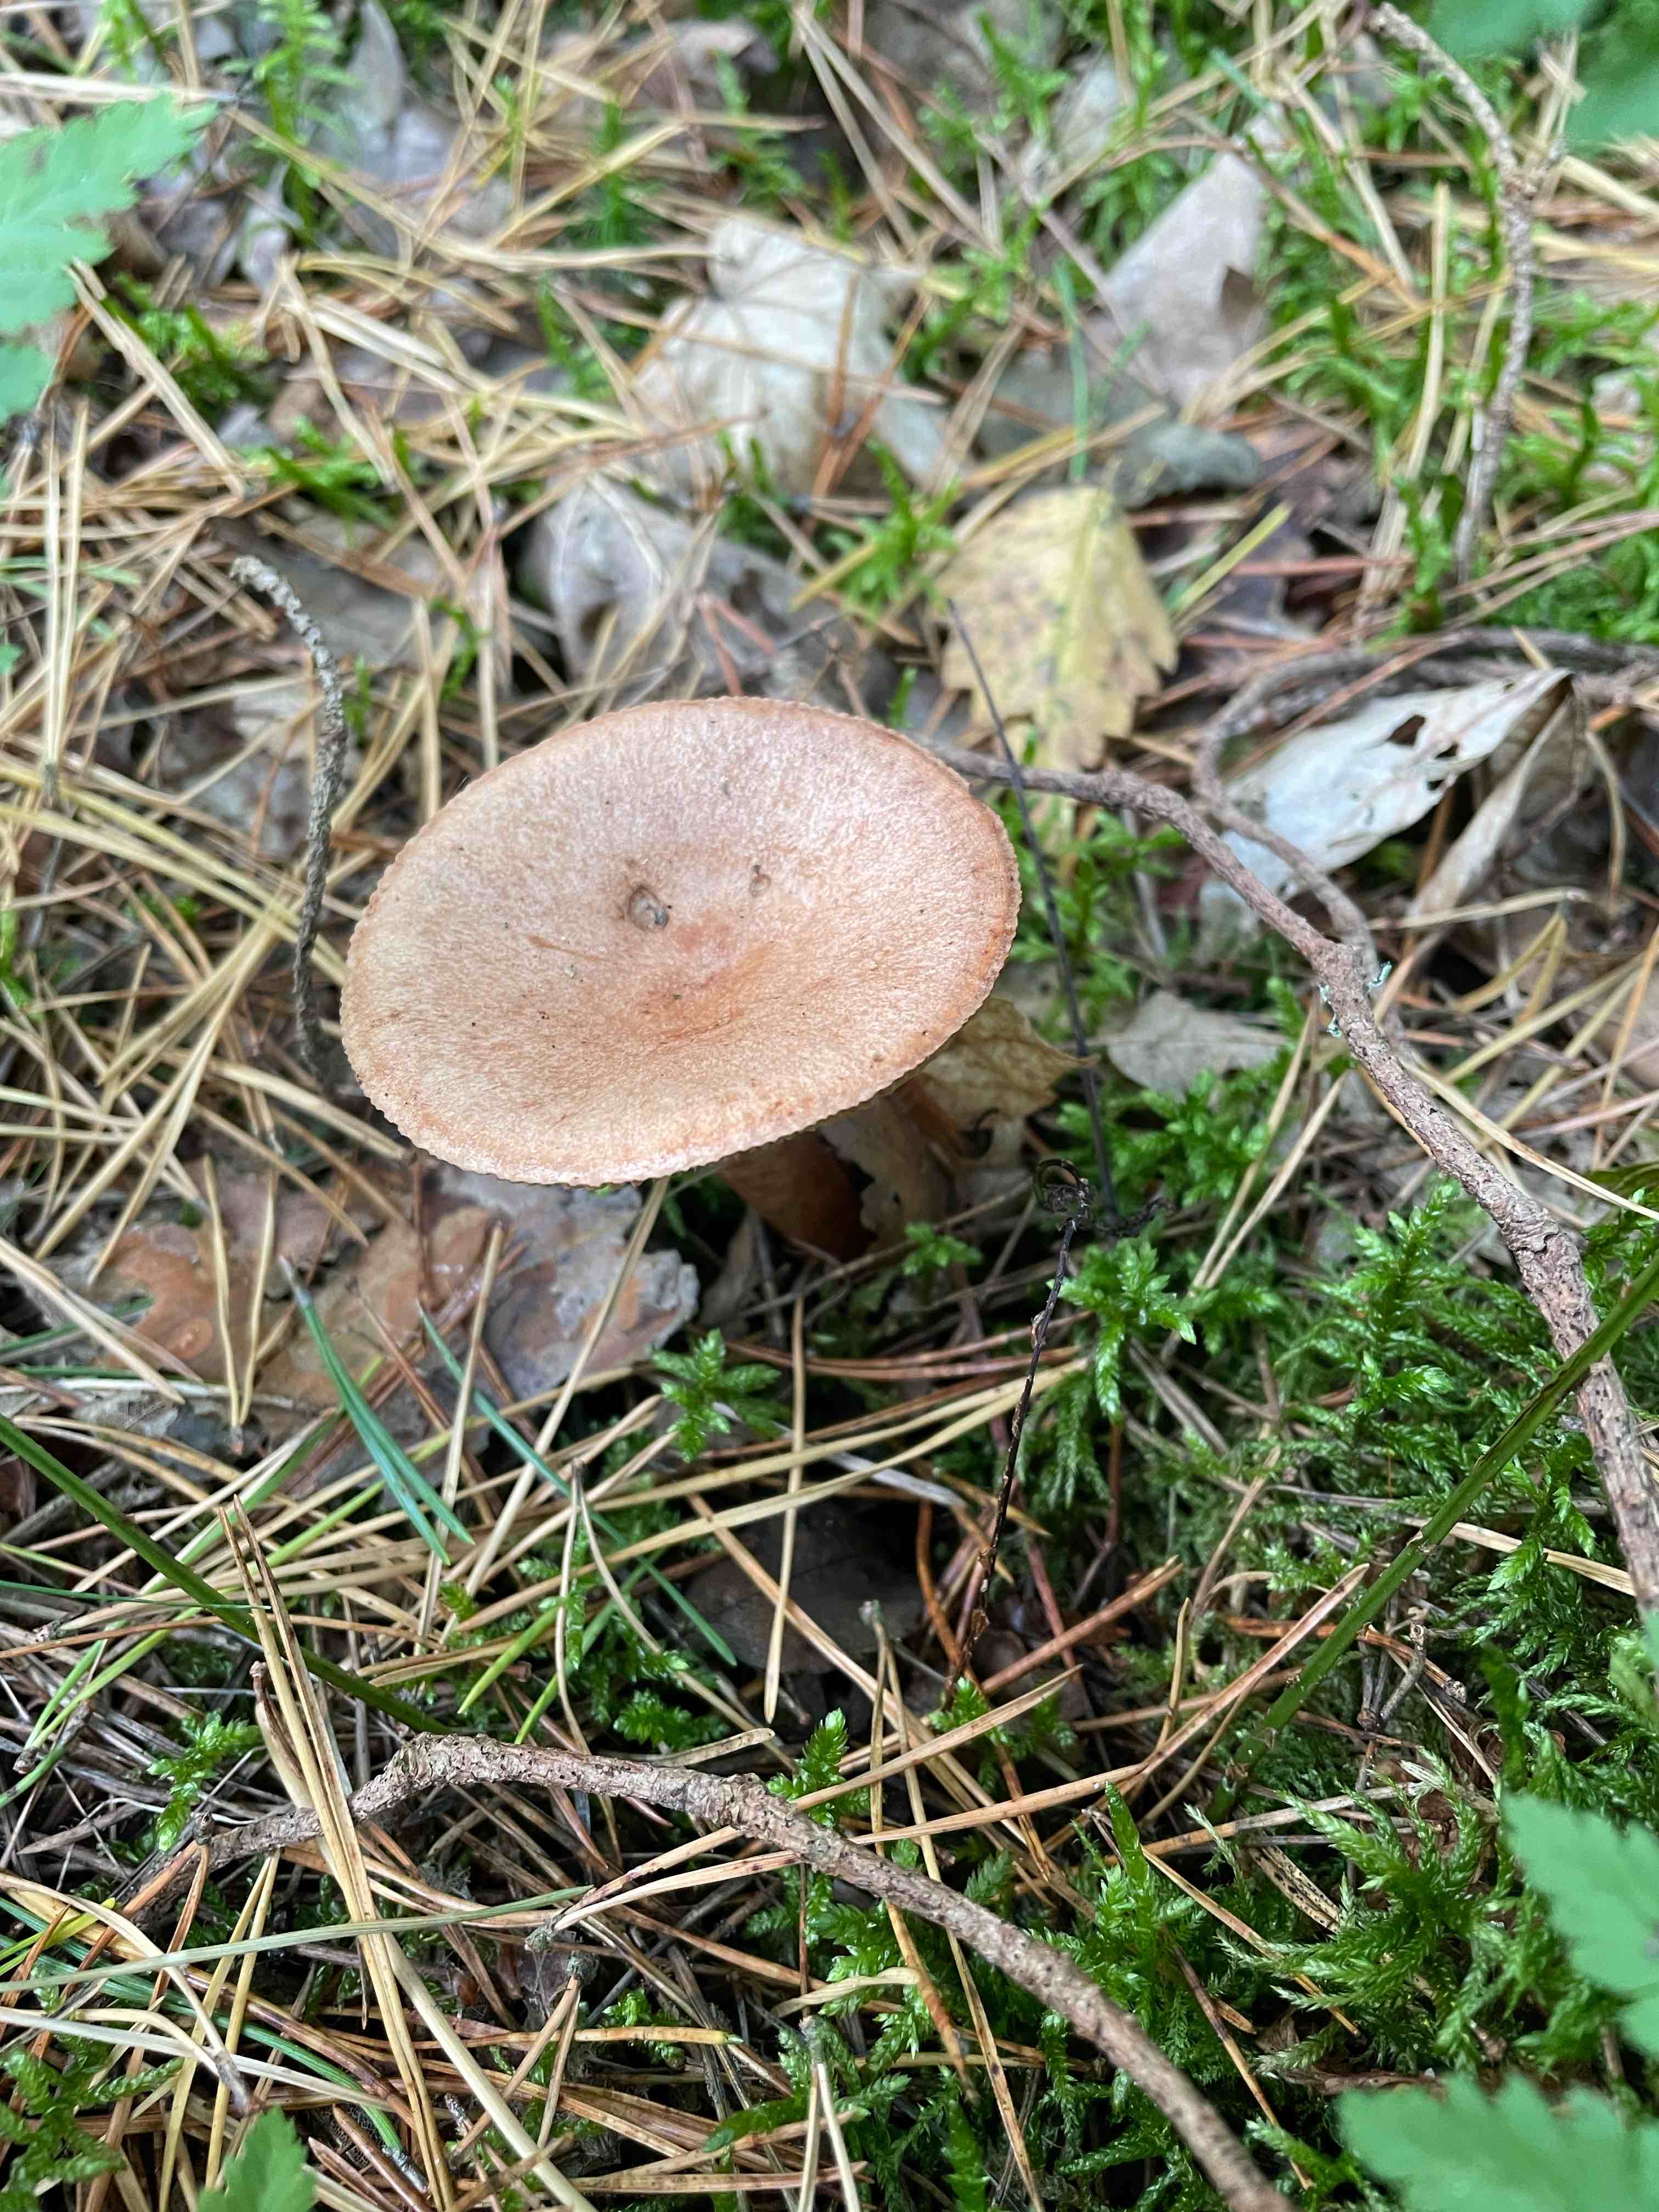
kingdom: Fungi
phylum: Basidiomycota
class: Agaricomycetes
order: Russulales
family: Russulaceae
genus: Lactarius
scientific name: Lactarius
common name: mælkehat
